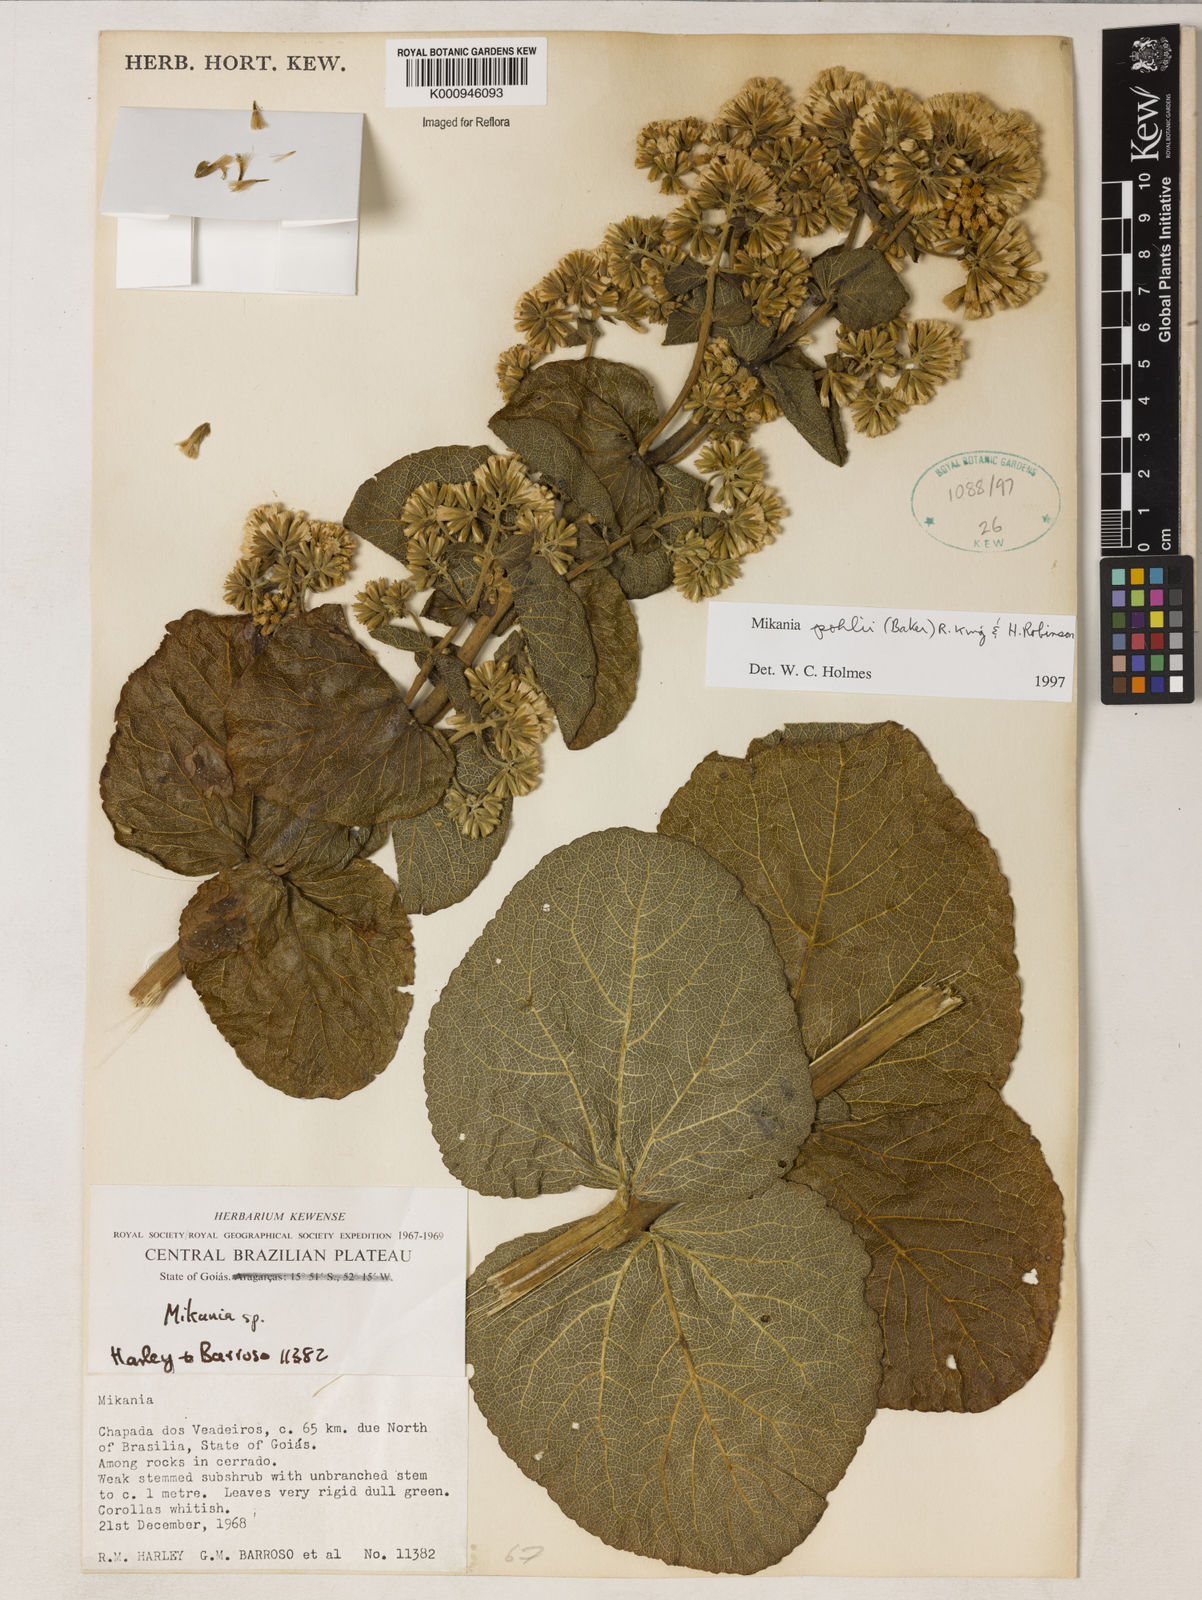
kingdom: Plantae
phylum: Tracheophyta
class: Magnoliopsida
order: Asterales
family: Asteraceae
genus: Mikania
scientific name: Mikania pohlii
